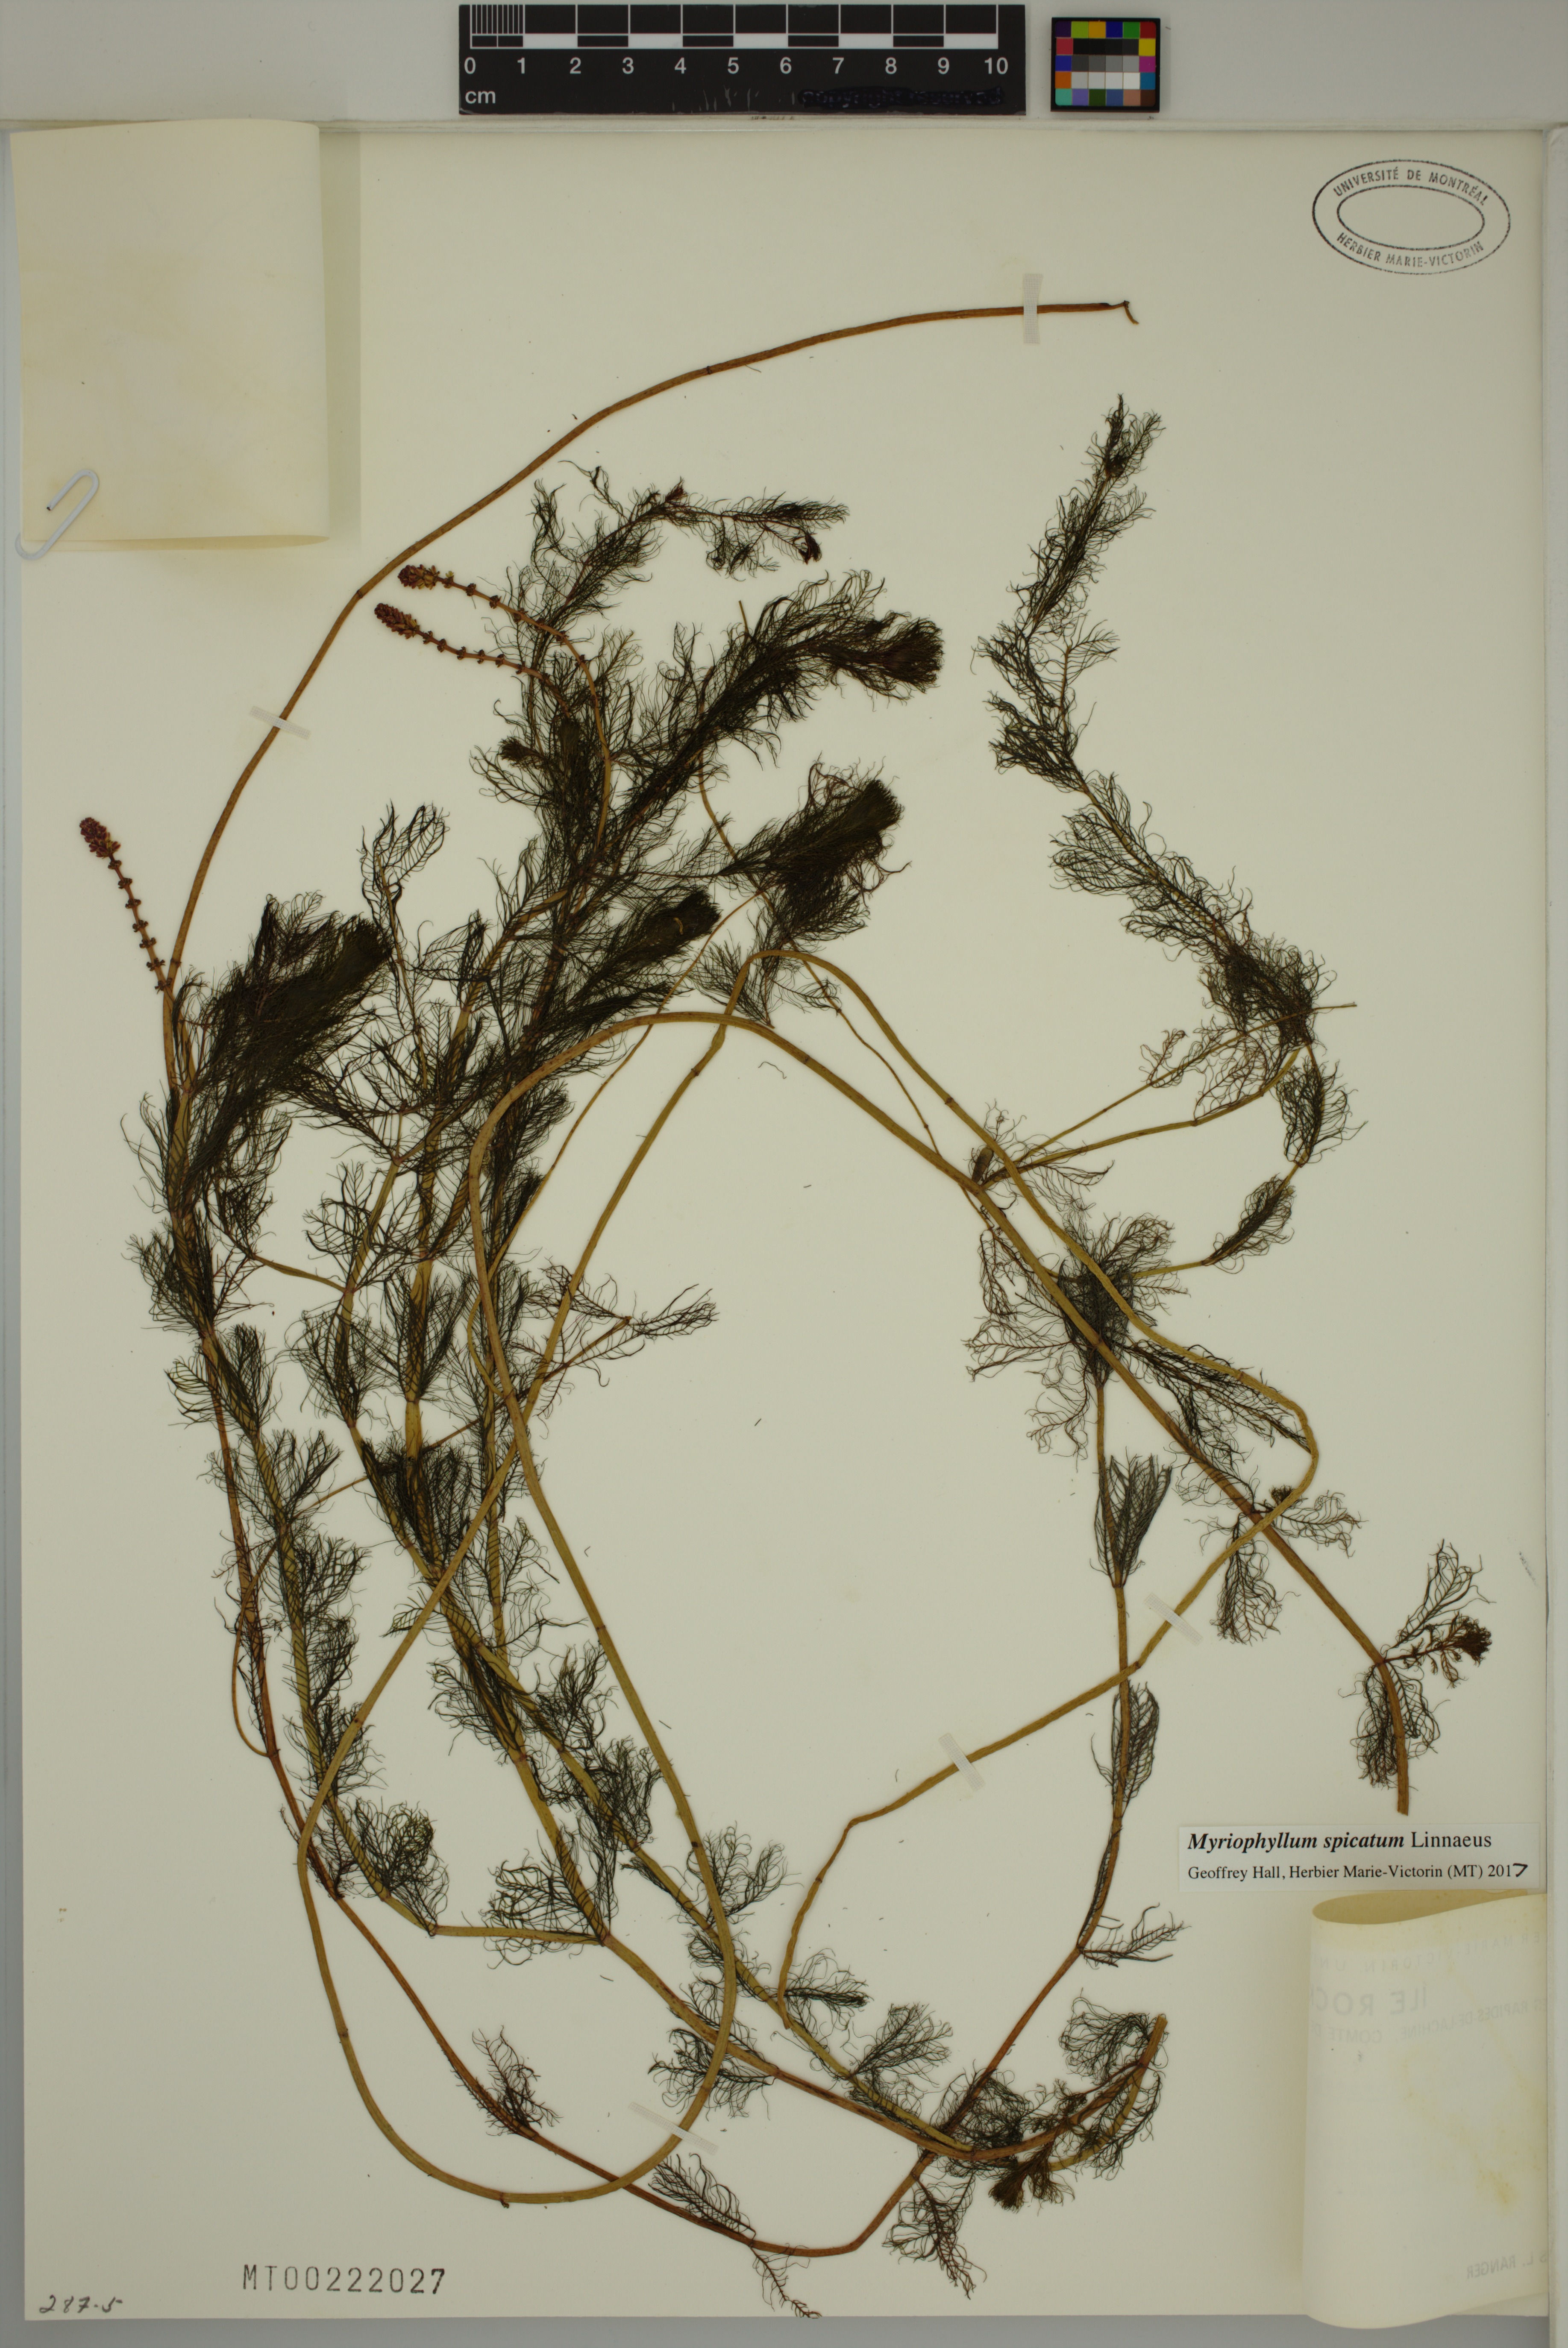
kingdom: Plantae
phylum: Tracheophyta
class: Magnoliopsida
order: Saxifragales
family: Haloragaceae
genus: Myriophyllum
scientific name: Myriophyllum spicatum
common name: Spiked water-milfoil
